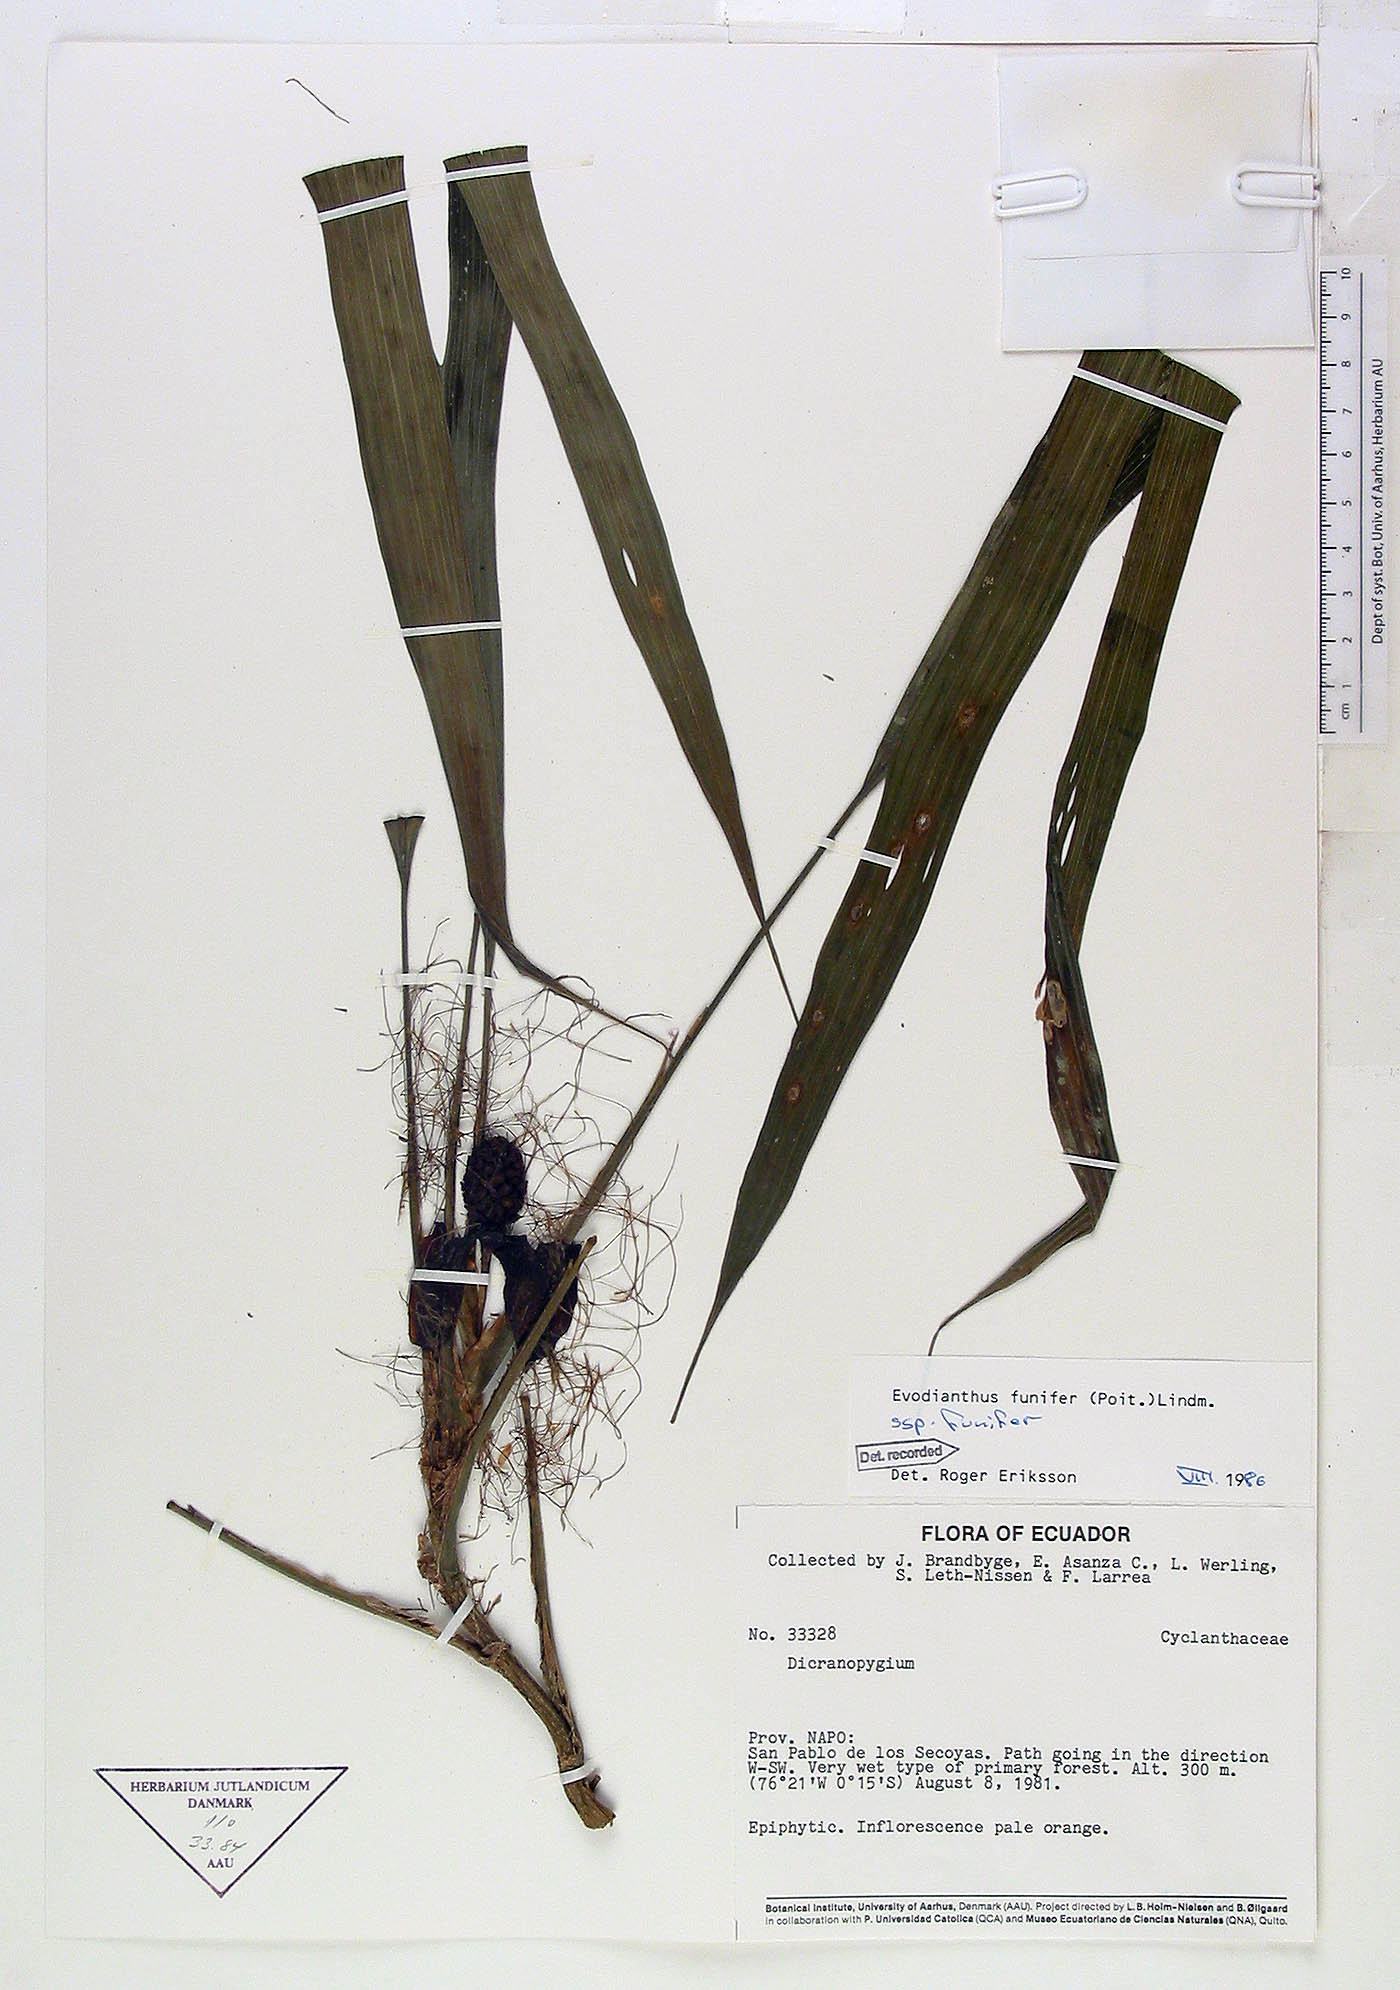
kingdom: Plantae
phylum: Tracheophyta
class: Liliopsida
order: Pandanales
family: Cyclanthaceae
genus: Evodianthus
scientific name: Evodianthus funifer
